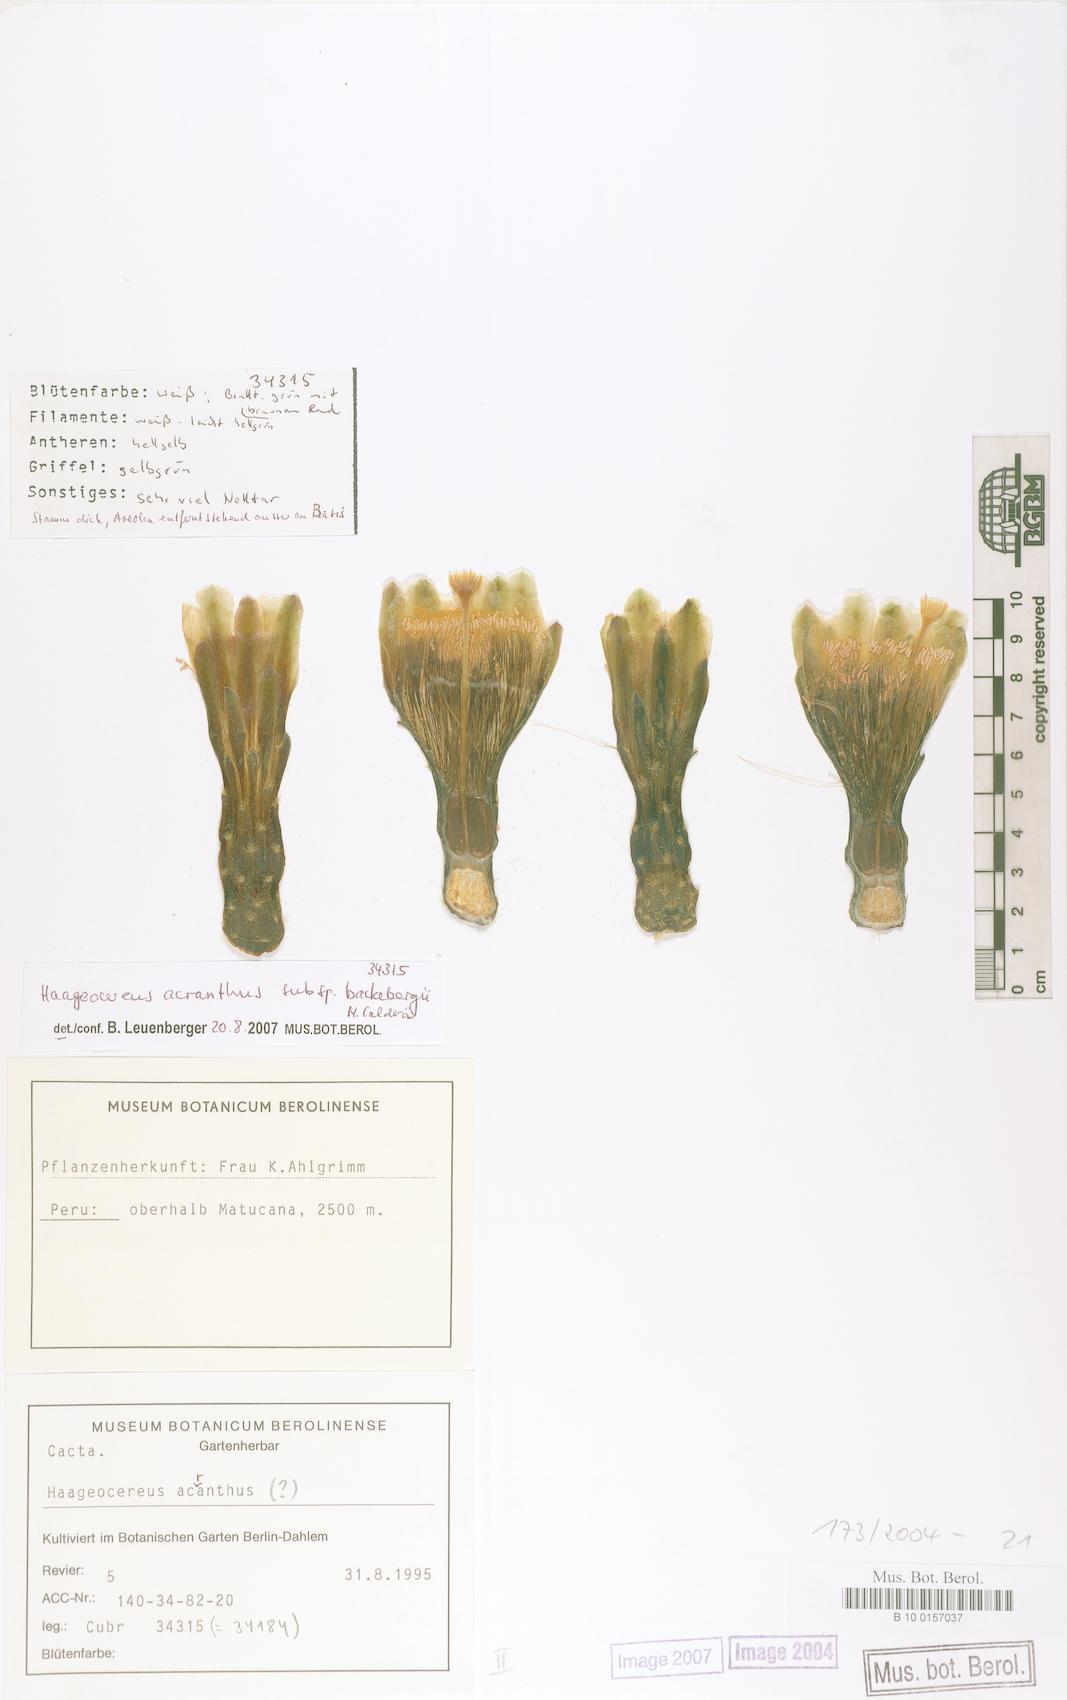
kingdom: Plantae
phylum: Tracheophyta
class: Magnoliopsida
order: Caryophyllales
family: Cactaceae
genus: Haageocereus
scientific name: Haageocereus acranthus
